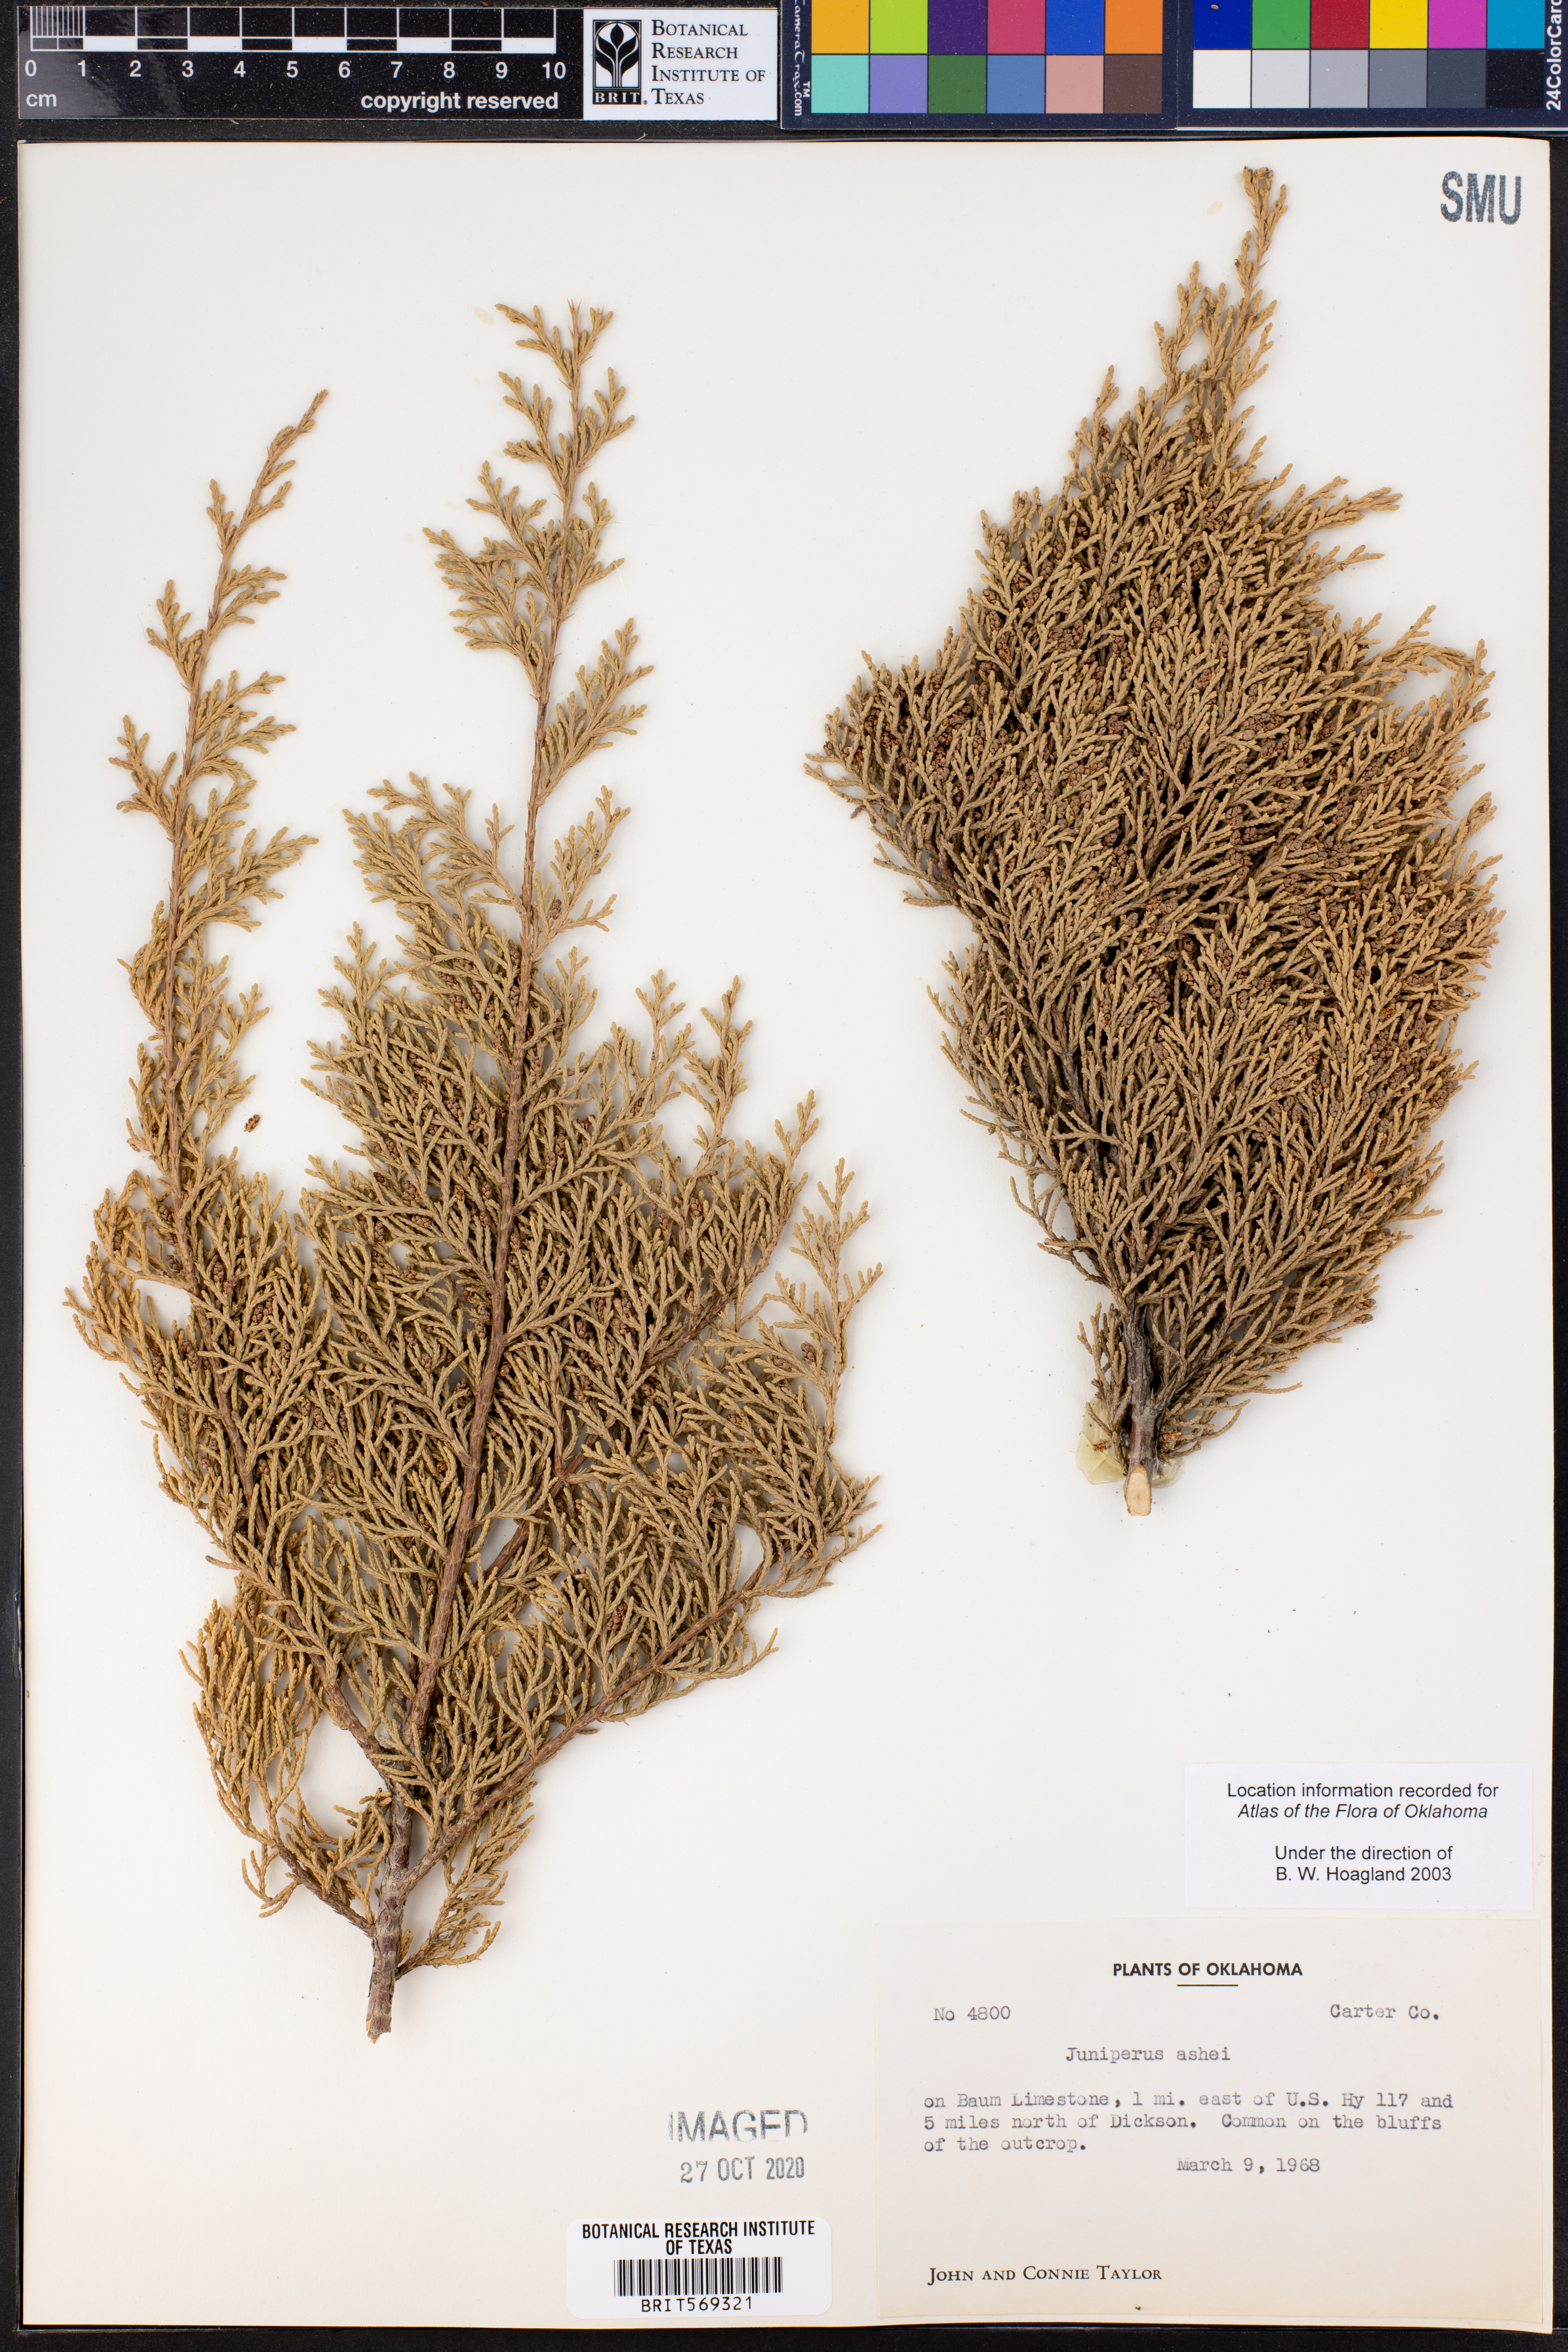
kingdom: Plantae
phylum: Tracheophyta
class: Pinopsida
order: Pinales
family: Cupressaceae
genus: Juniperus
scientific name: Juniperus ashei
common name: Mexican juniper
